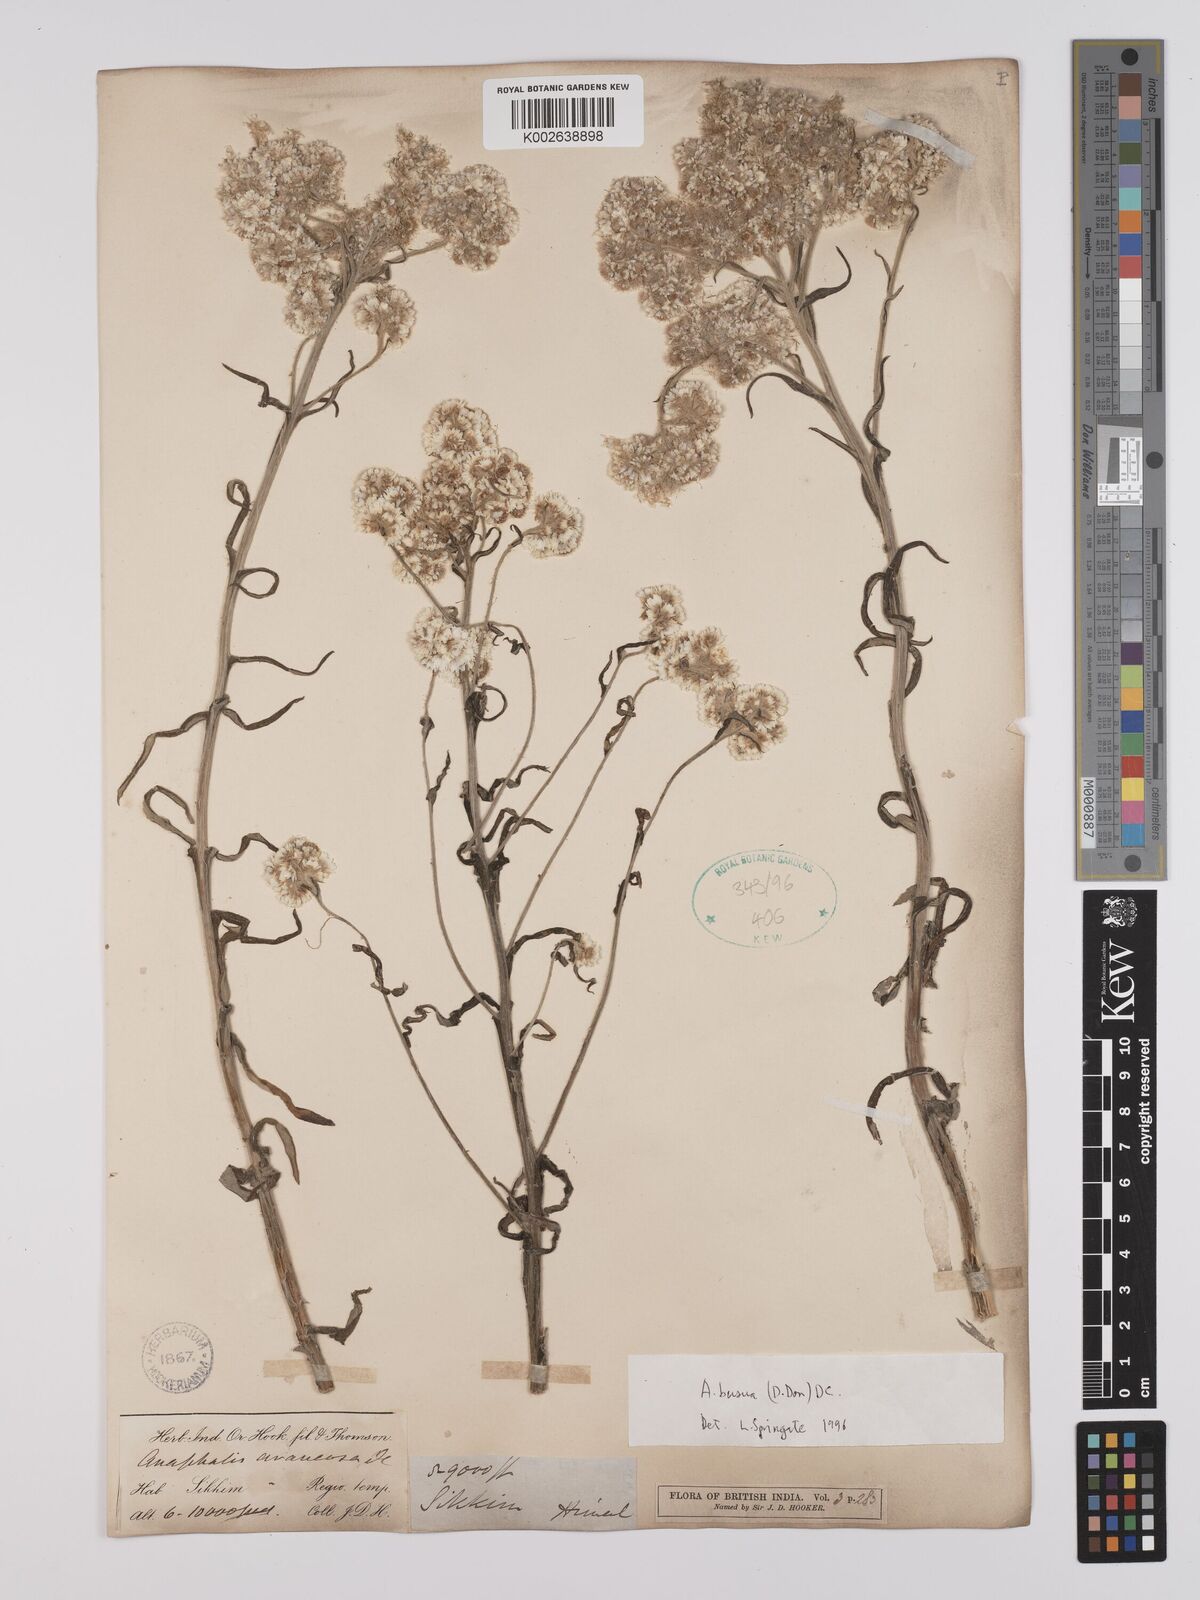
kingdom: Plantae
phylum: Tracheophyta
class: Magnoliopsida
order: Asterales
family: Asteraceae
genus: Anaphalis
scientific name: Anaphalis busua
